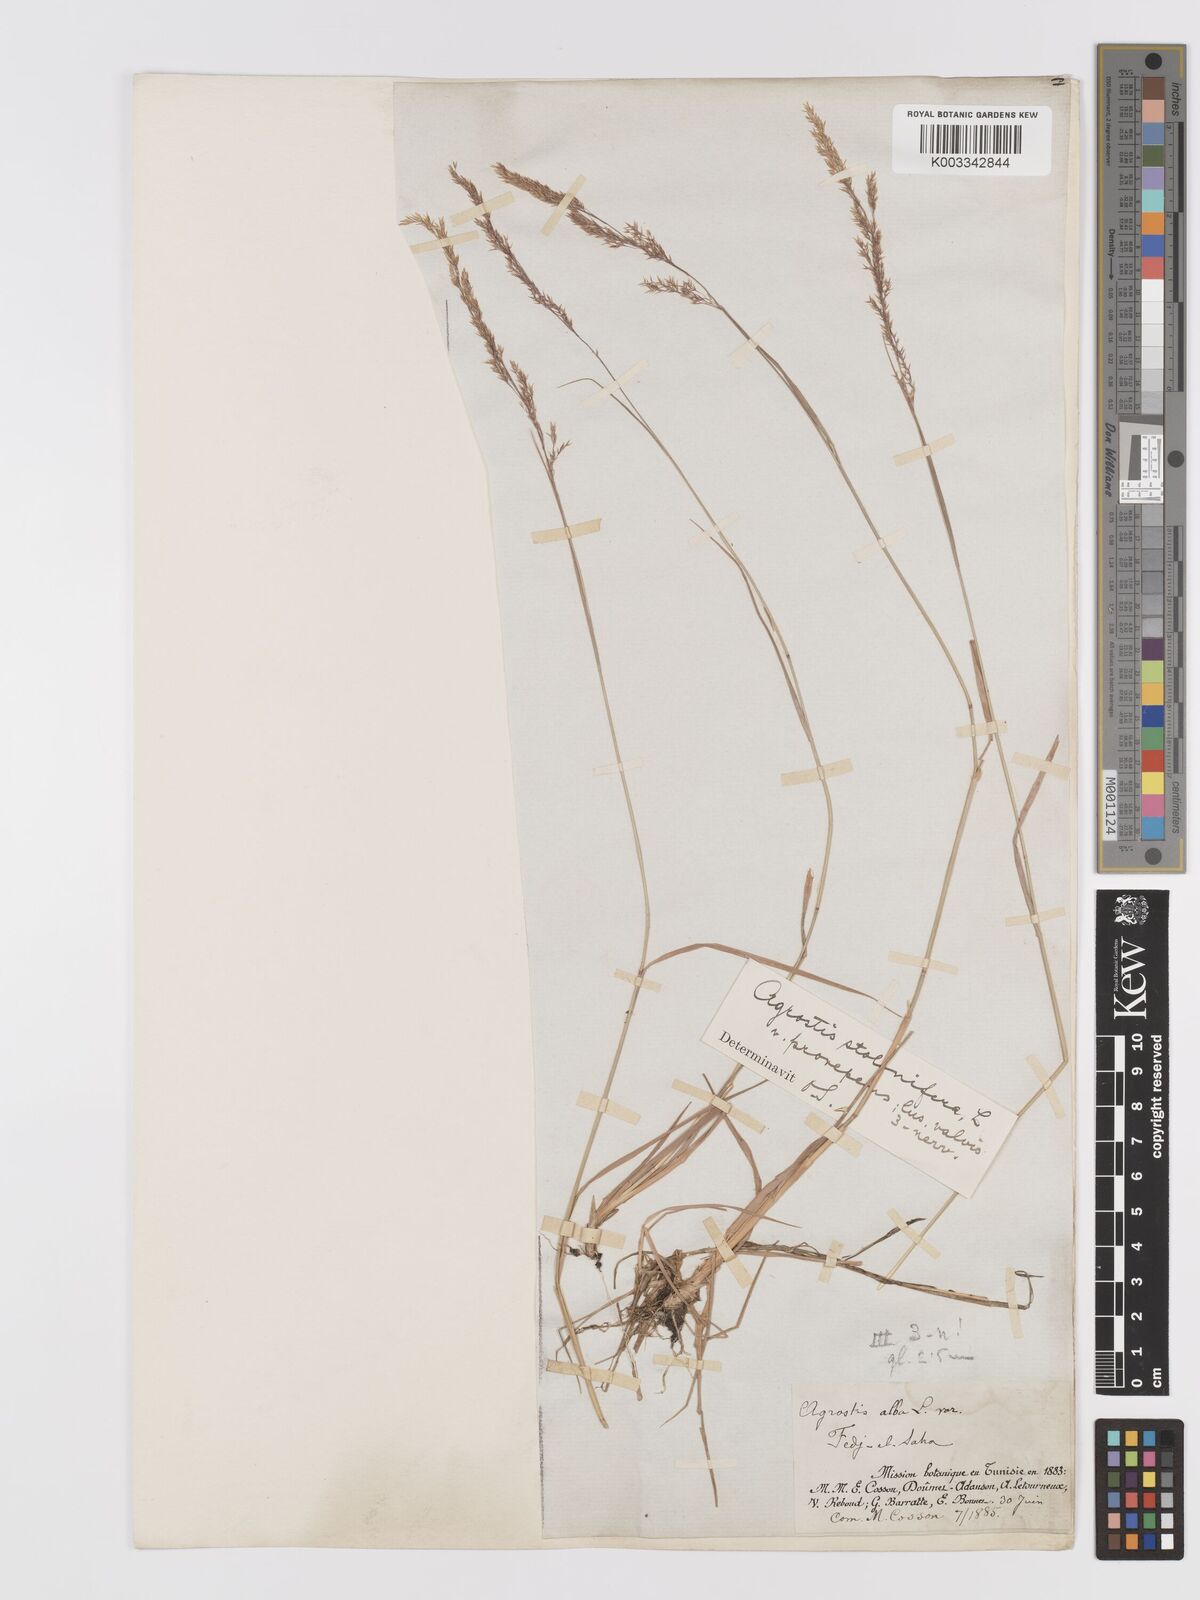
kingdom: Plantae
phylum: Tracheophyta
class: Liliopsida
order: Poales
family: Poaceae
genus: Agrostis
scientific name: Agrostis stolonifera
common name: Creeping bentgrass
